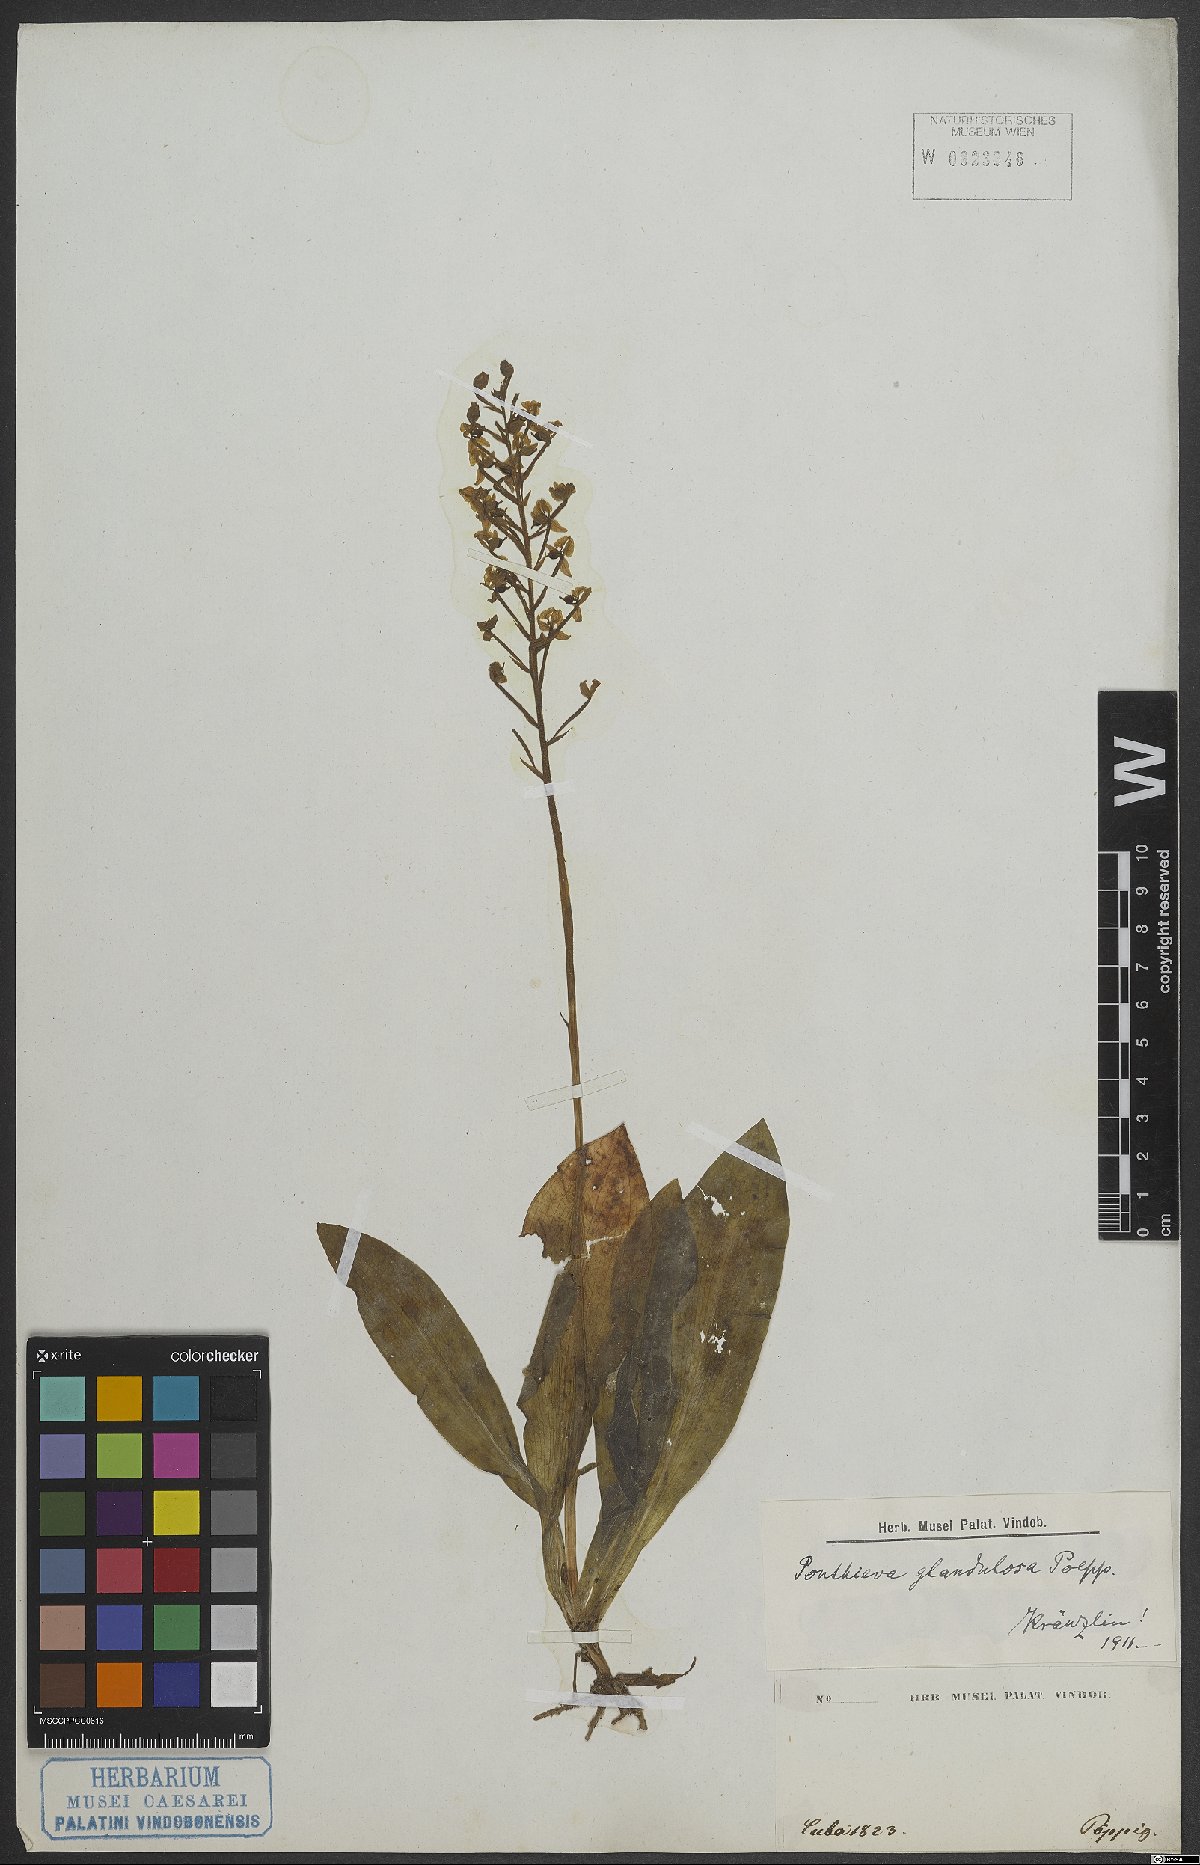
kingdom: Plantae
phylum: Tracheophyta
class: Liliopsida
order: Asparagales
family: Orchidaceae
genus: Ponthieva
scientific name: Ponthieva glandulosa
